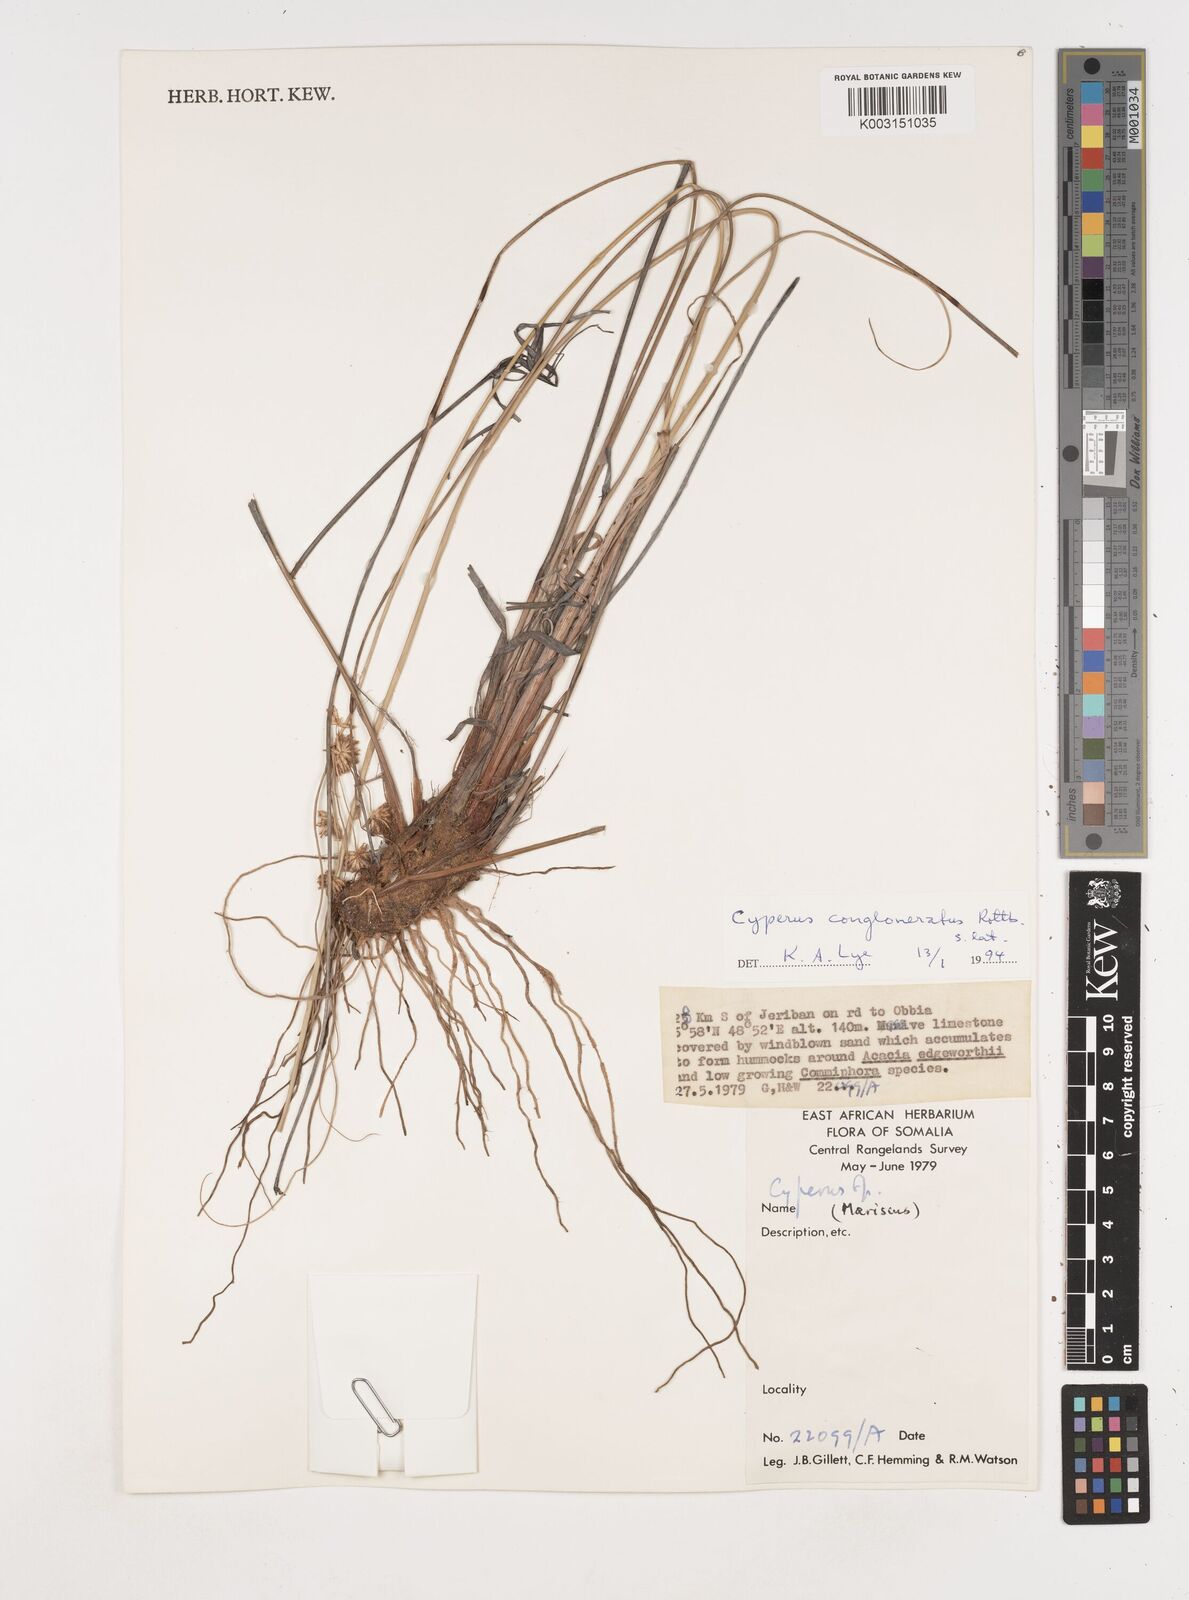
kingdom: Plantae
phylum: Tracheophyta
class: Liliopsida
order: Poales
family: Cyperaceae
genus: Cyperus
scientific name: Cyperus conglomeratus
